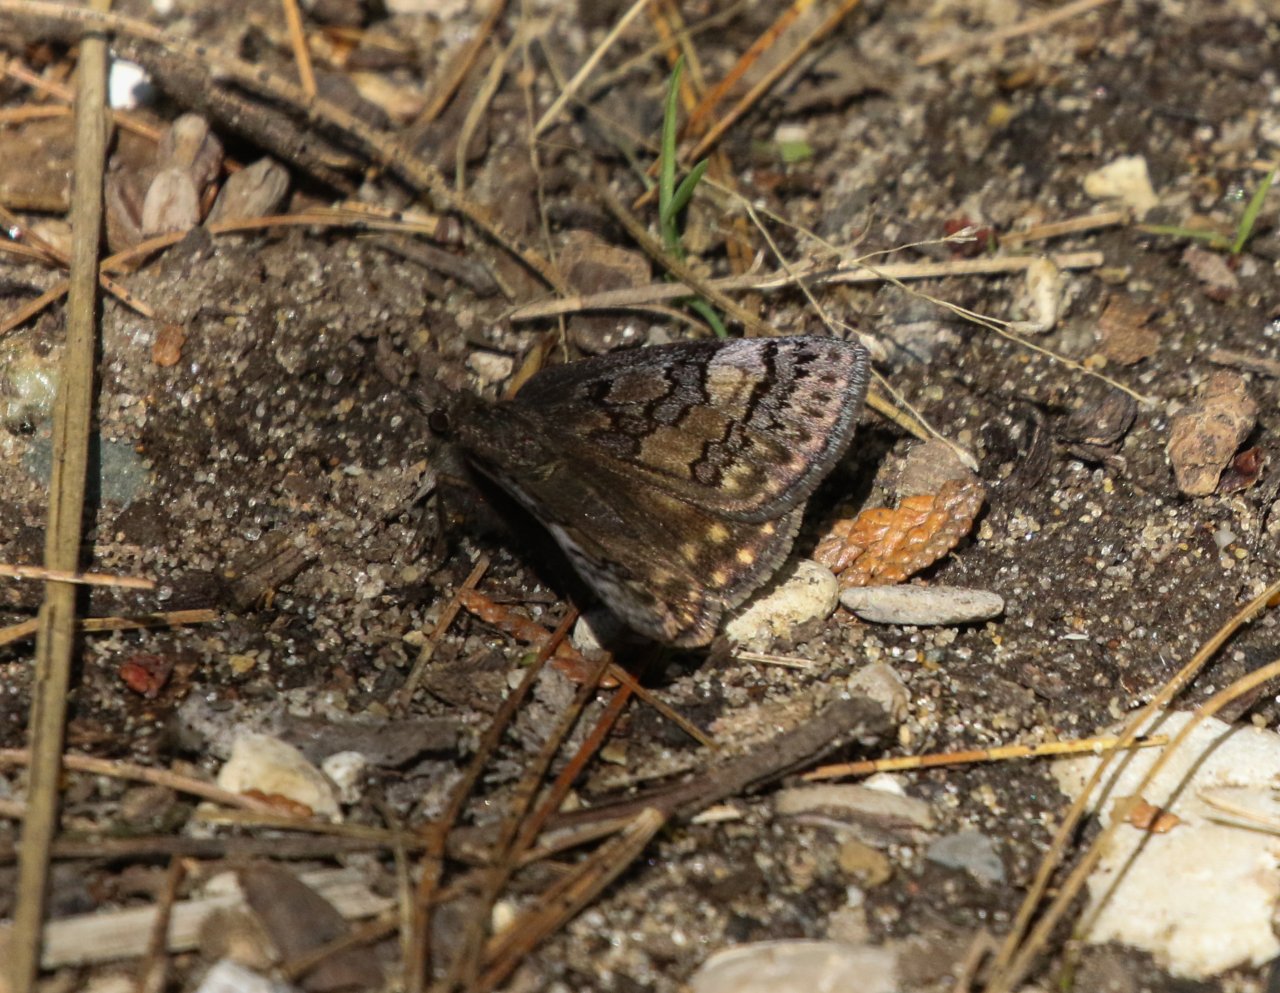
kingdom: Animalia
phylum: Arthropoda
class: Insecta
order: Lepidoptera
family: Hesperiidae
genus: Erynnis
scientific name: Erynnis brizo
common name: Sleepy Duskywing
